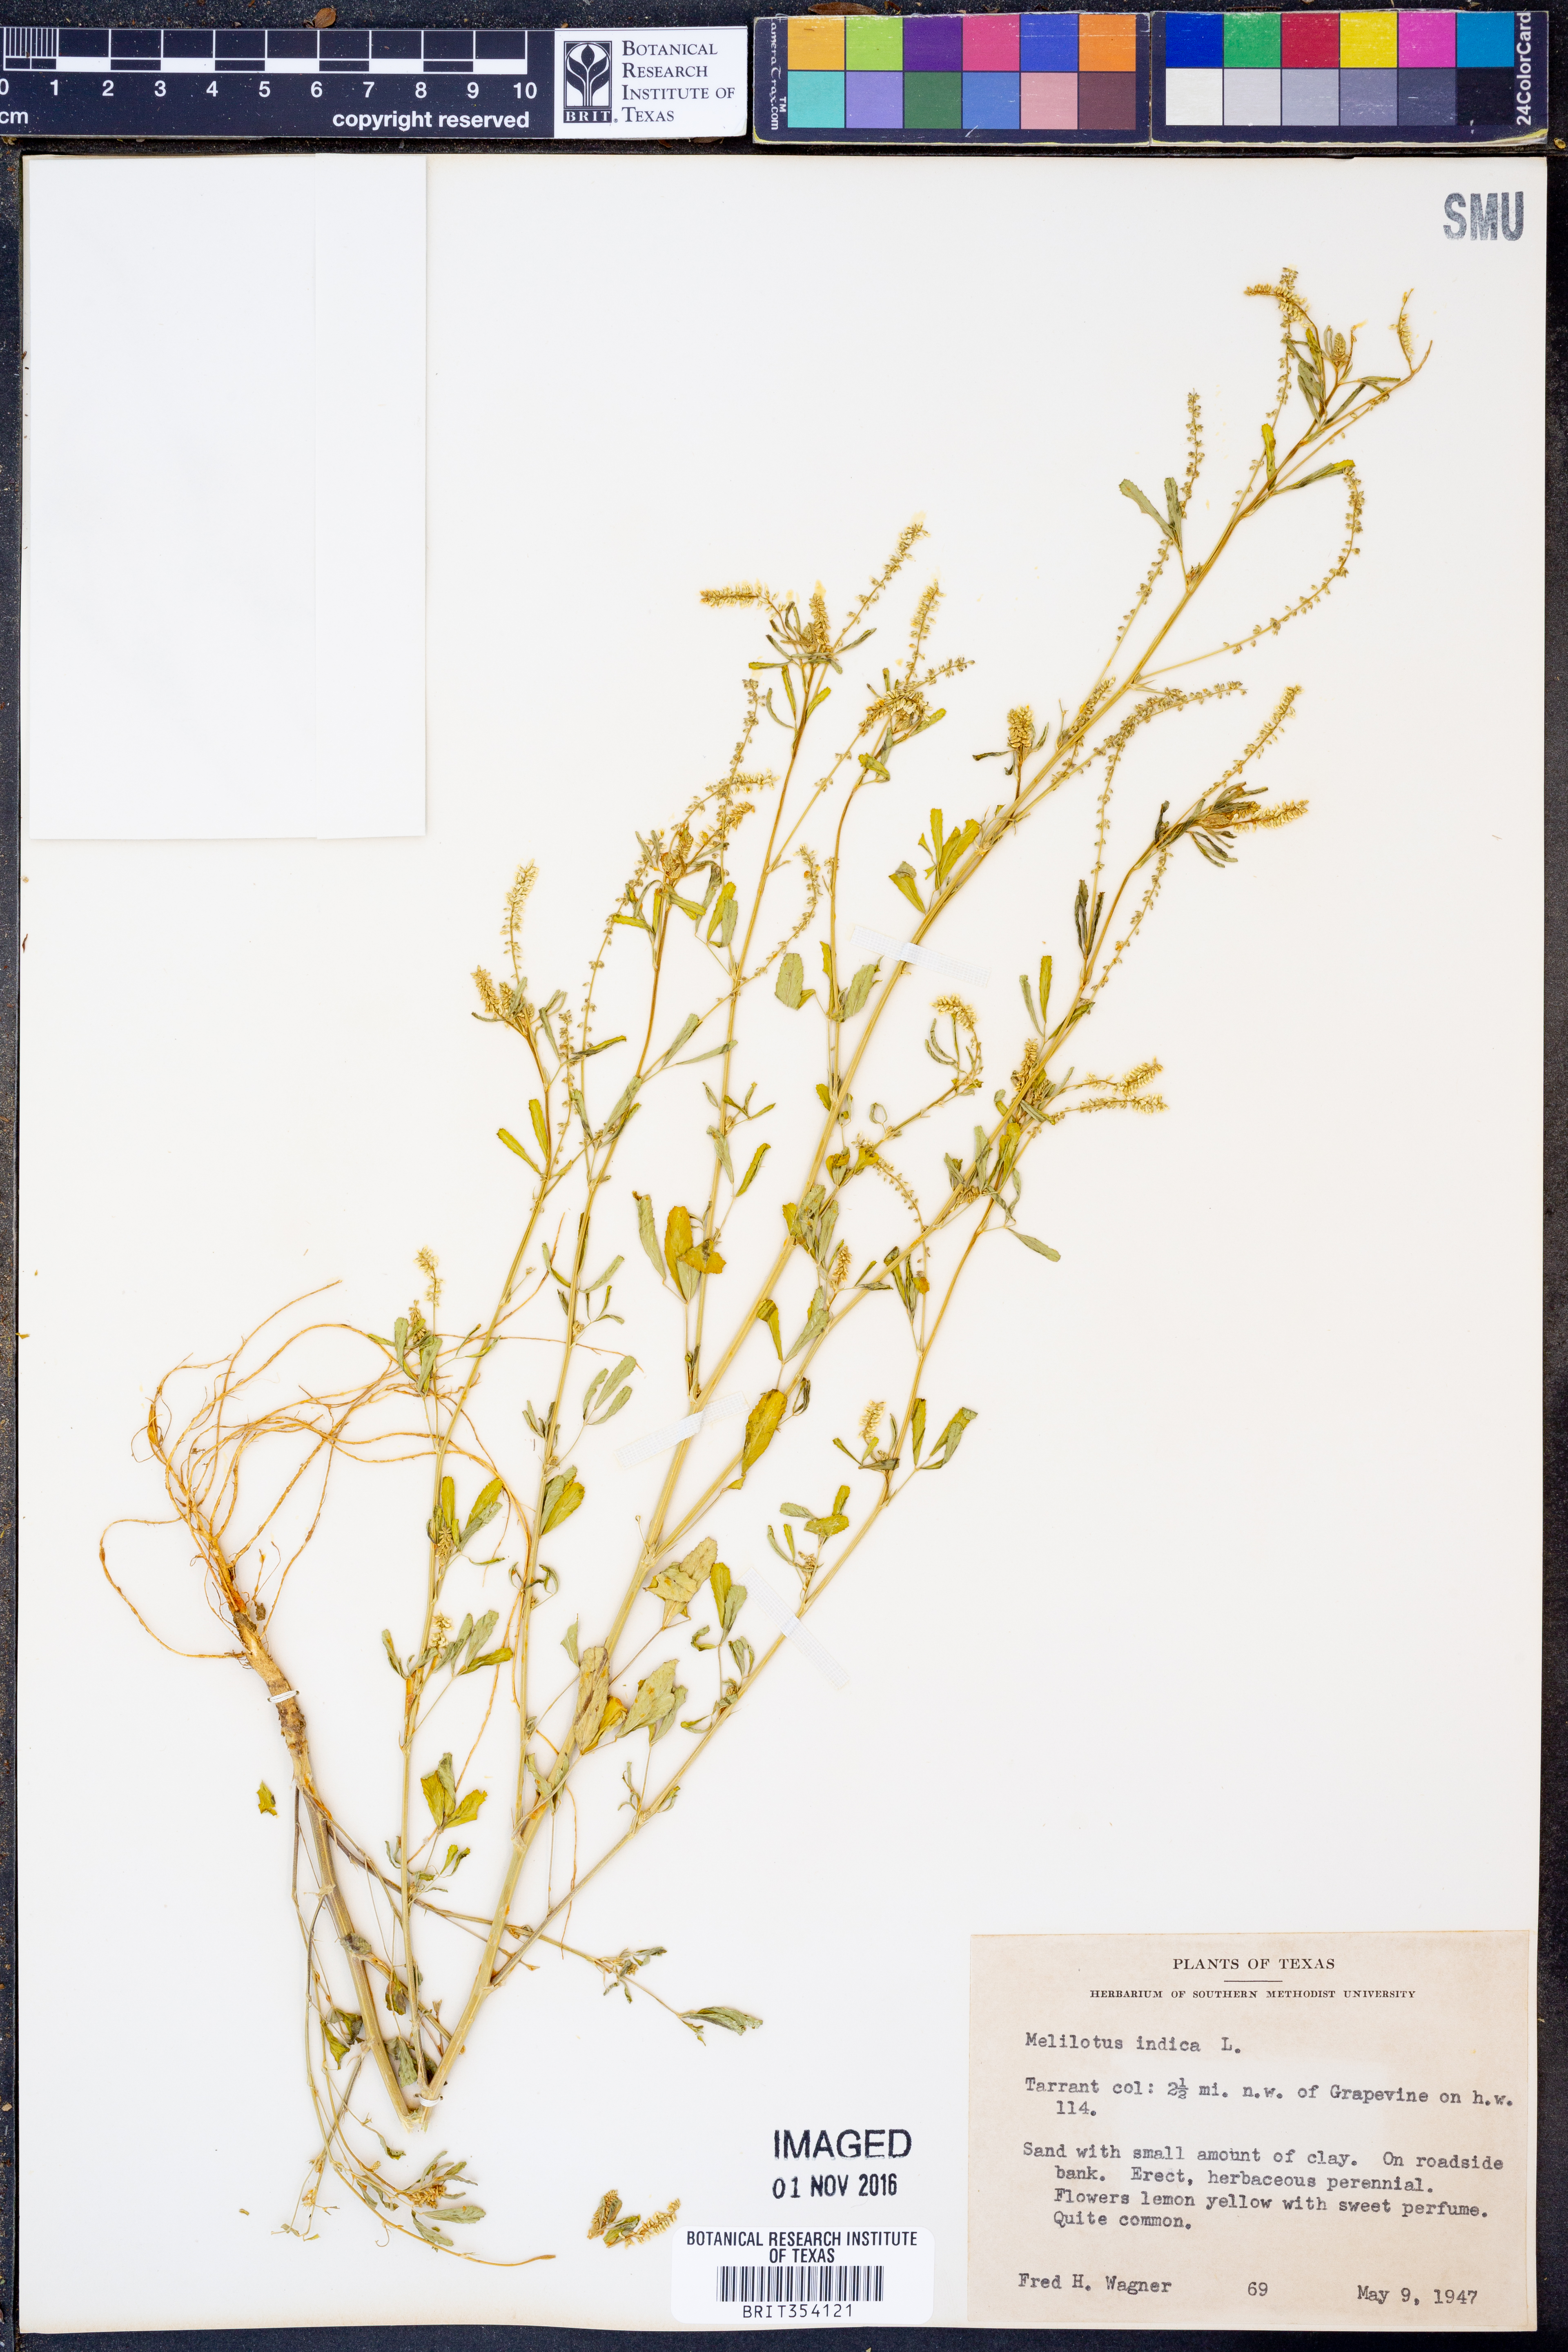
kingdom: Plantae
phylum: Tracheophyta
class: Magnoliopsida
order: Fabales
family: Fabaceae
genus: Melilotus
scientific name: Melilotus indicus
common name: Small melilot
